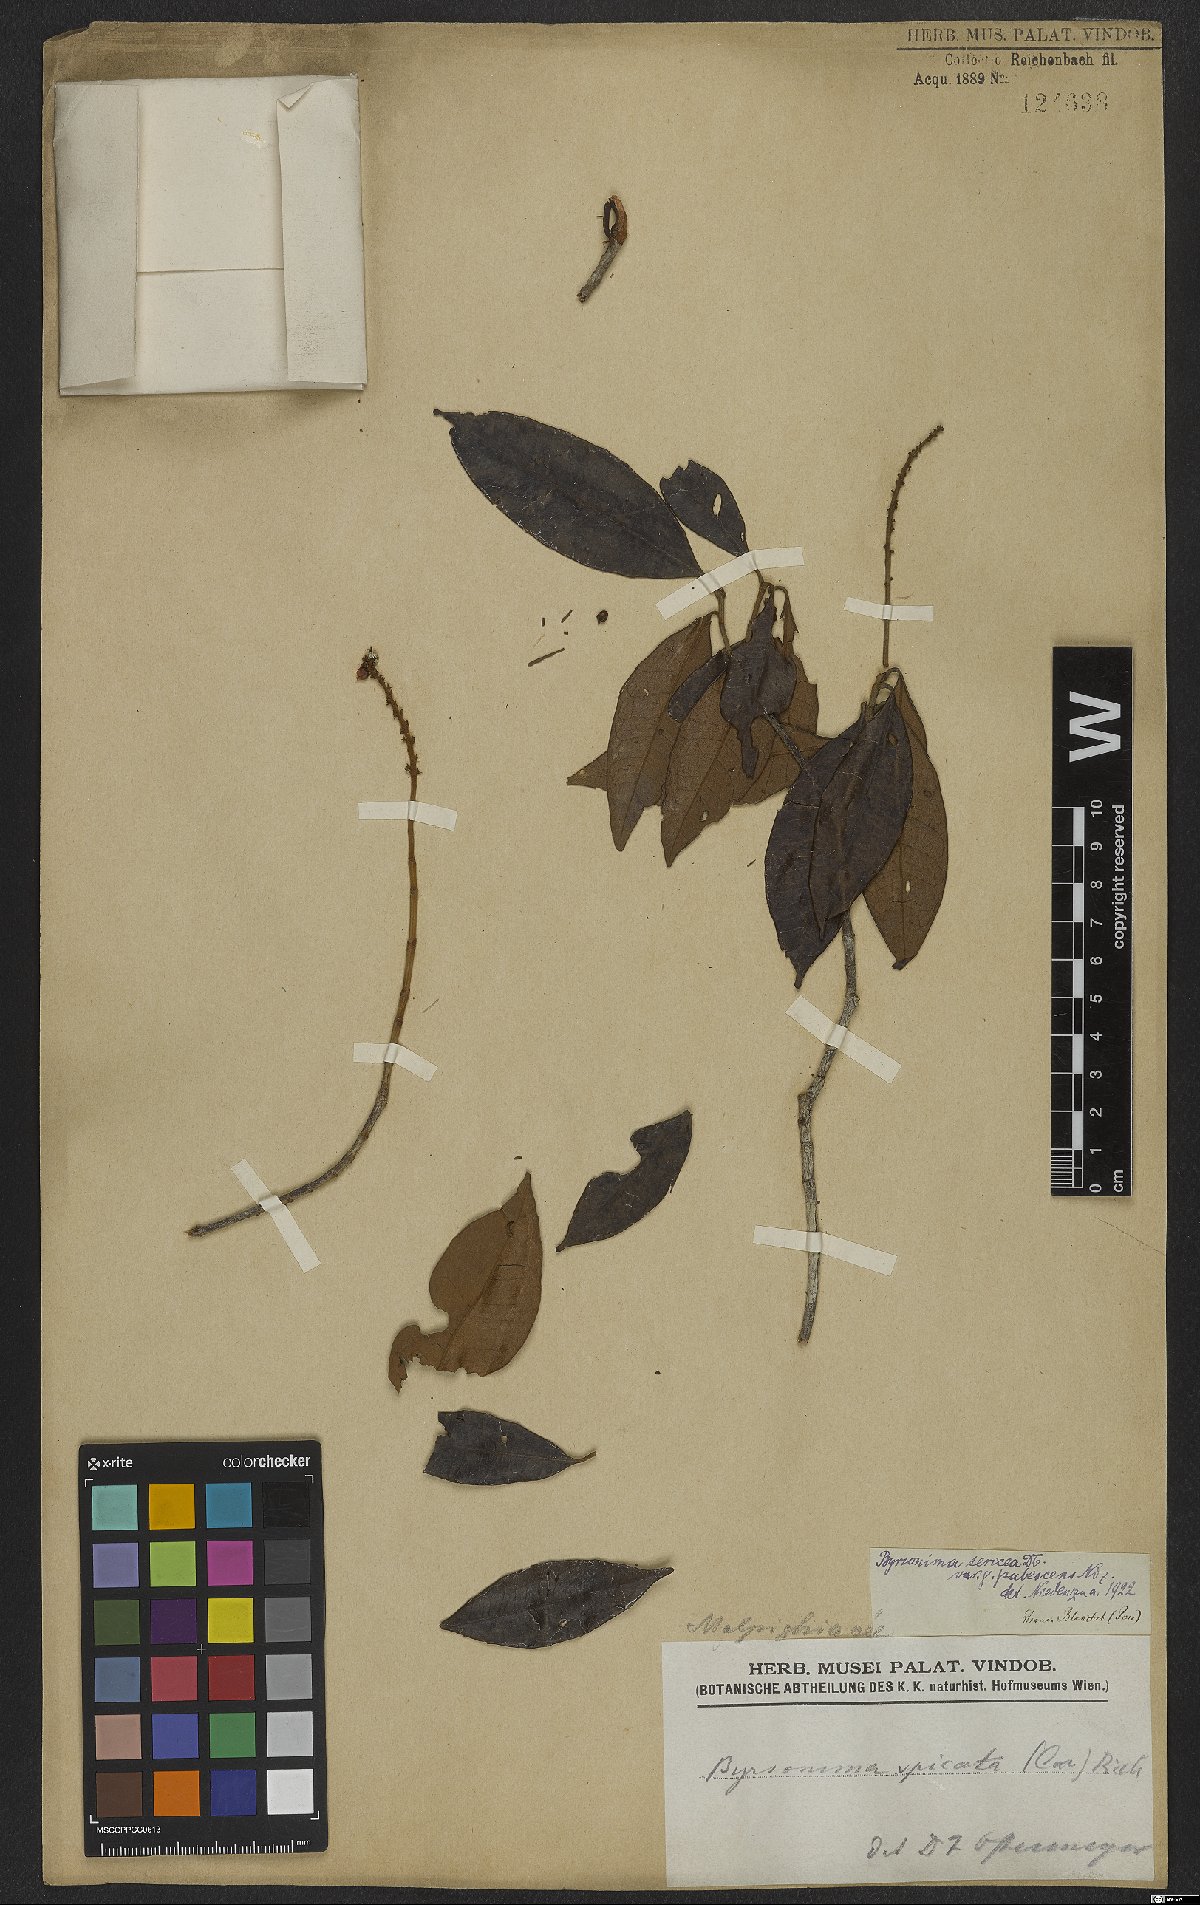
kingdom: Plantae
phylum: Tracheophyta
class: Magnoliopsida
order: Malpighiales
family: Malpighiaceae
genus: Byrsonima
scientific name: Byrsonima sericea
